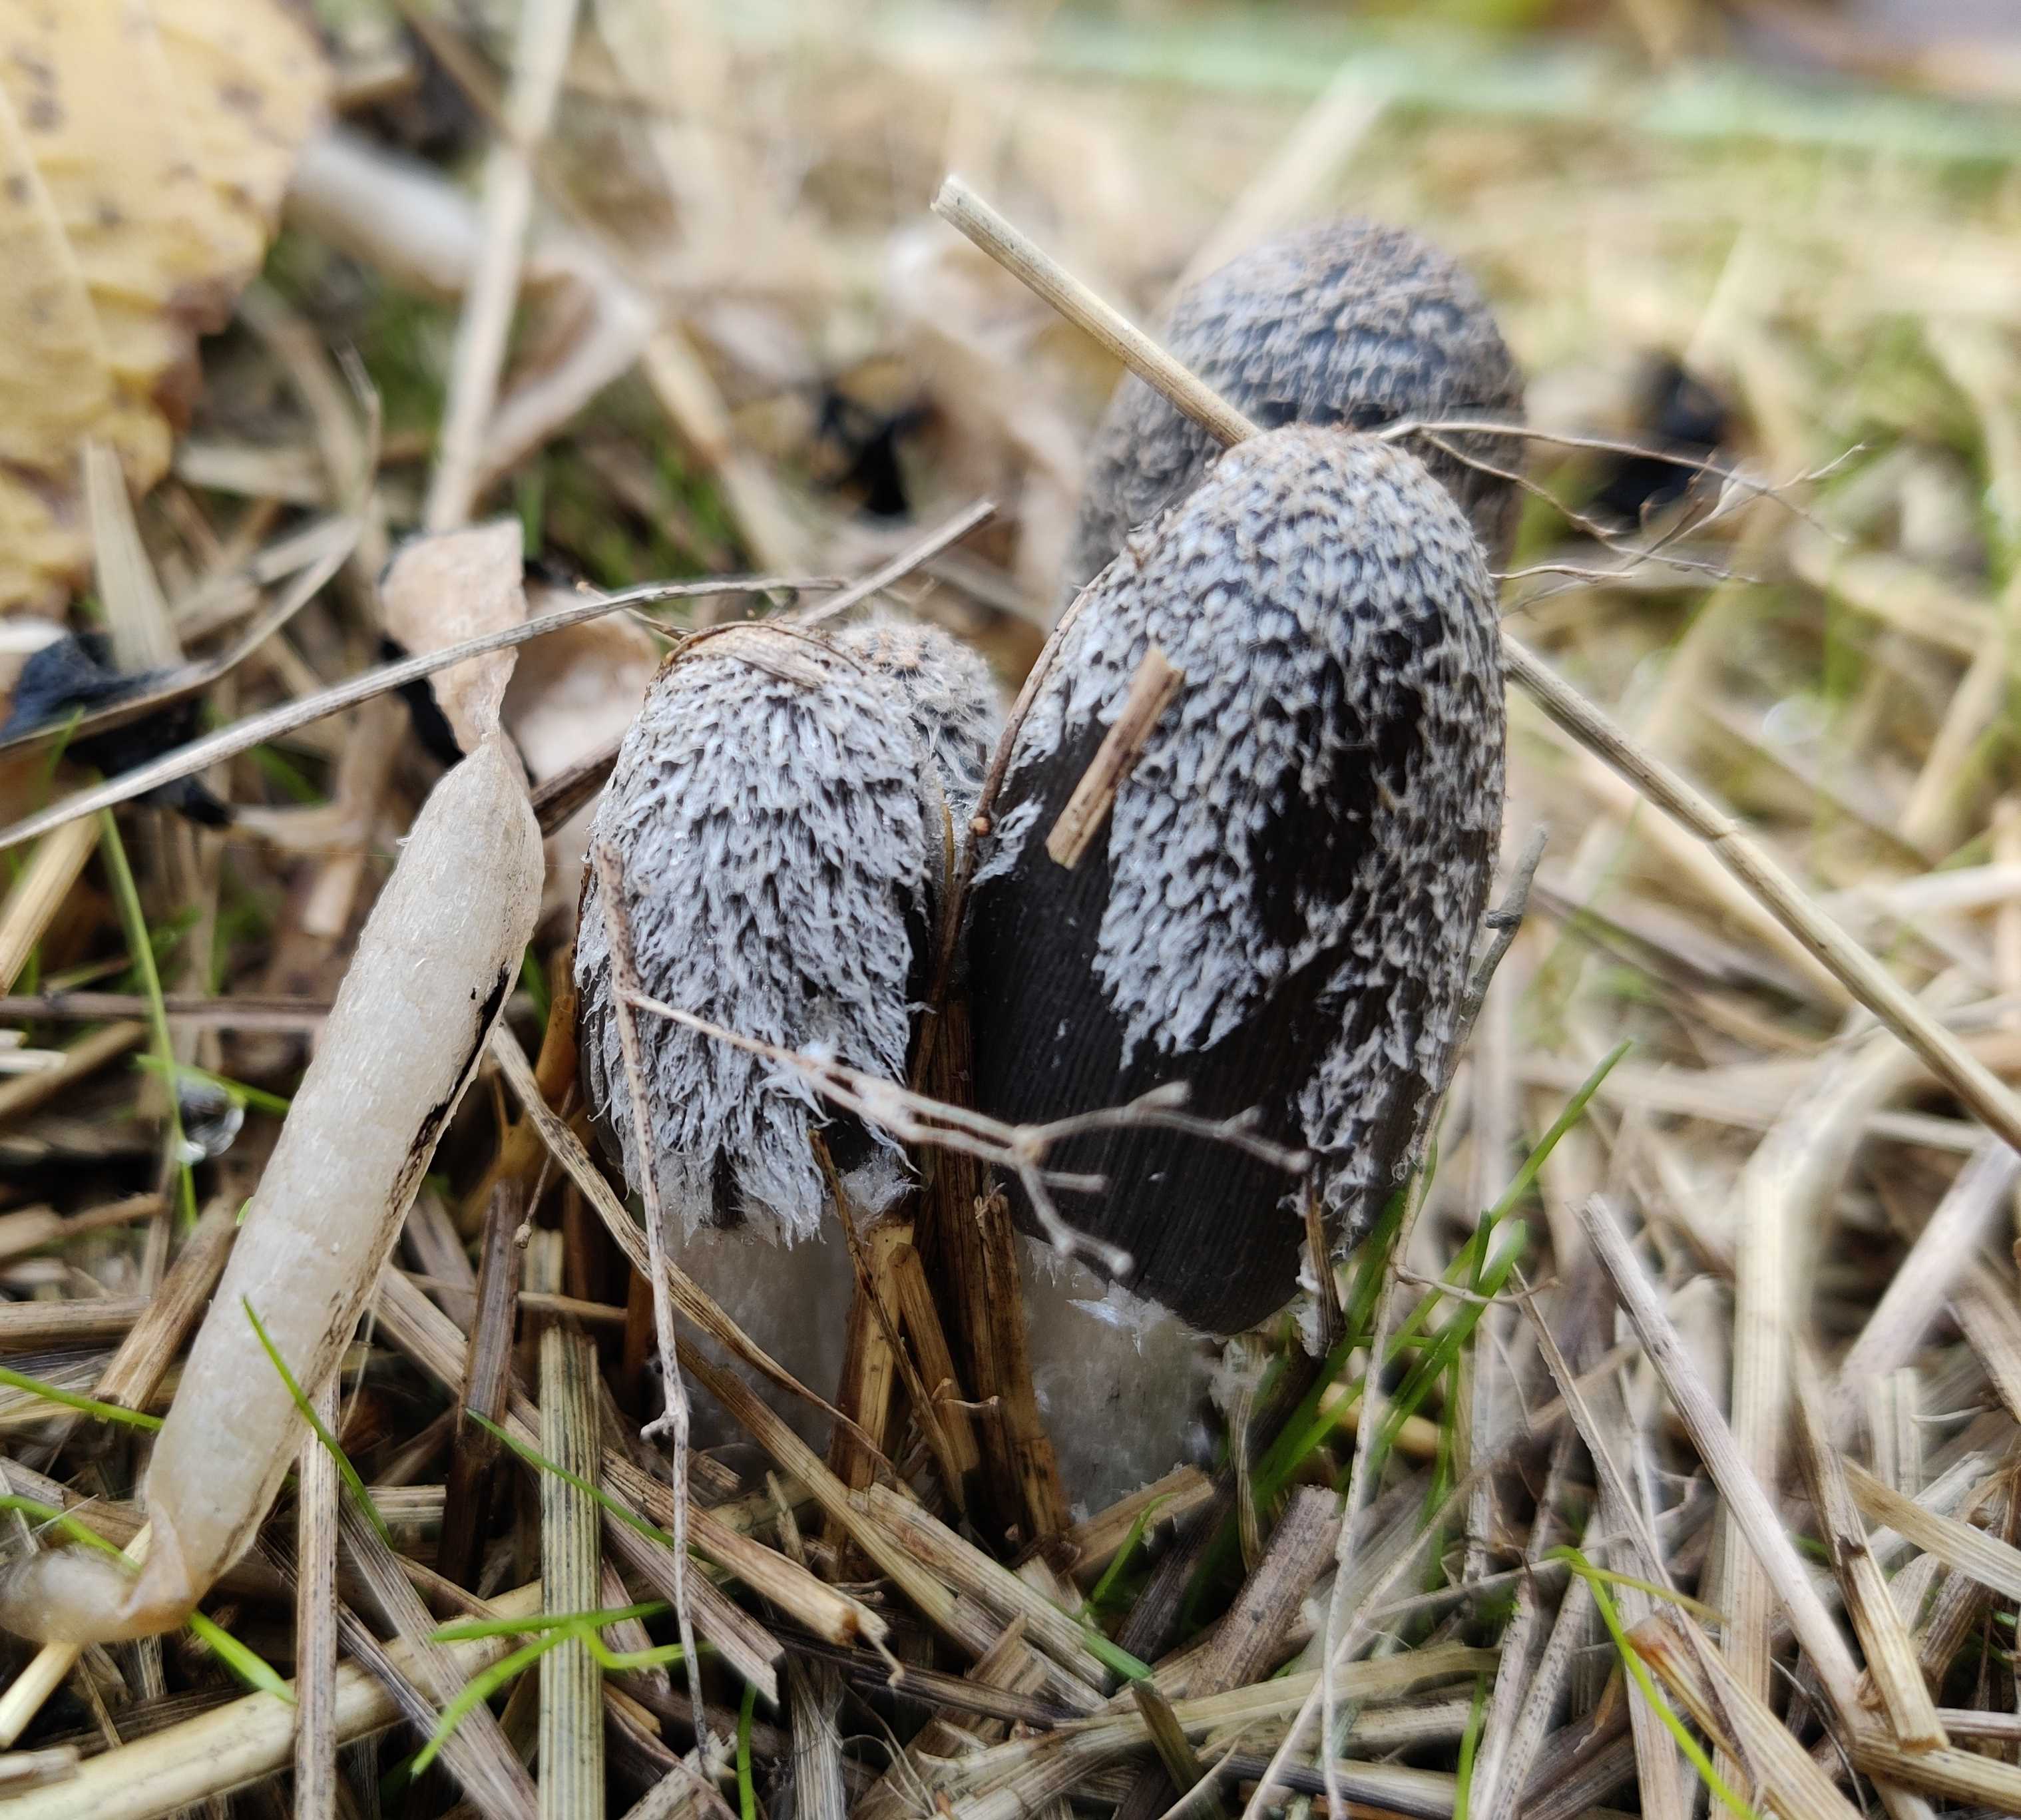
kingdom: Fungi
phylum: Basidiomycota
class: Agaricomycetes
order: Agaricales
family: Psathyrellaceae
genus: Coprinopsis
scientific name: Coprinopsis
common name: blækhat
